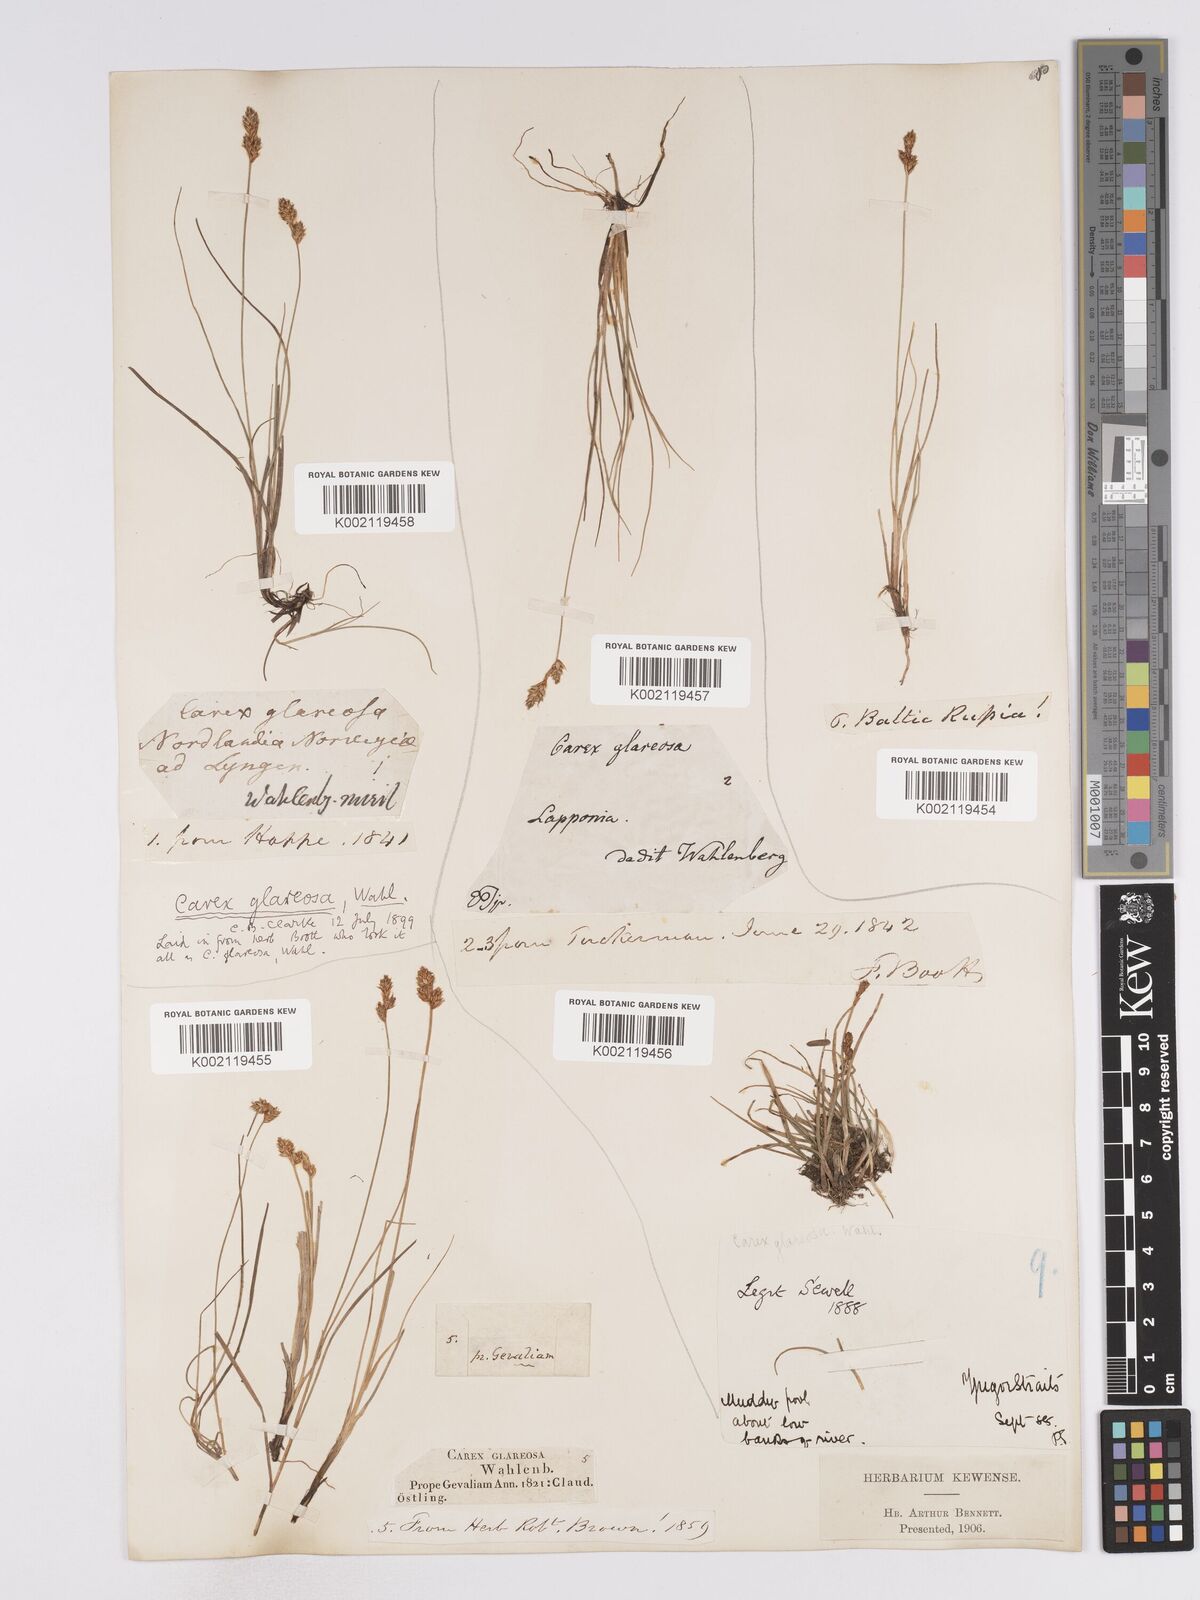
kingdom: Plantae
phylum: Tracheophyta
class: Liliopsida
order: Poales
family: Cyperaceae
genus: Carex
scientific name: Carex glareosa
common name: Clustered sedge
